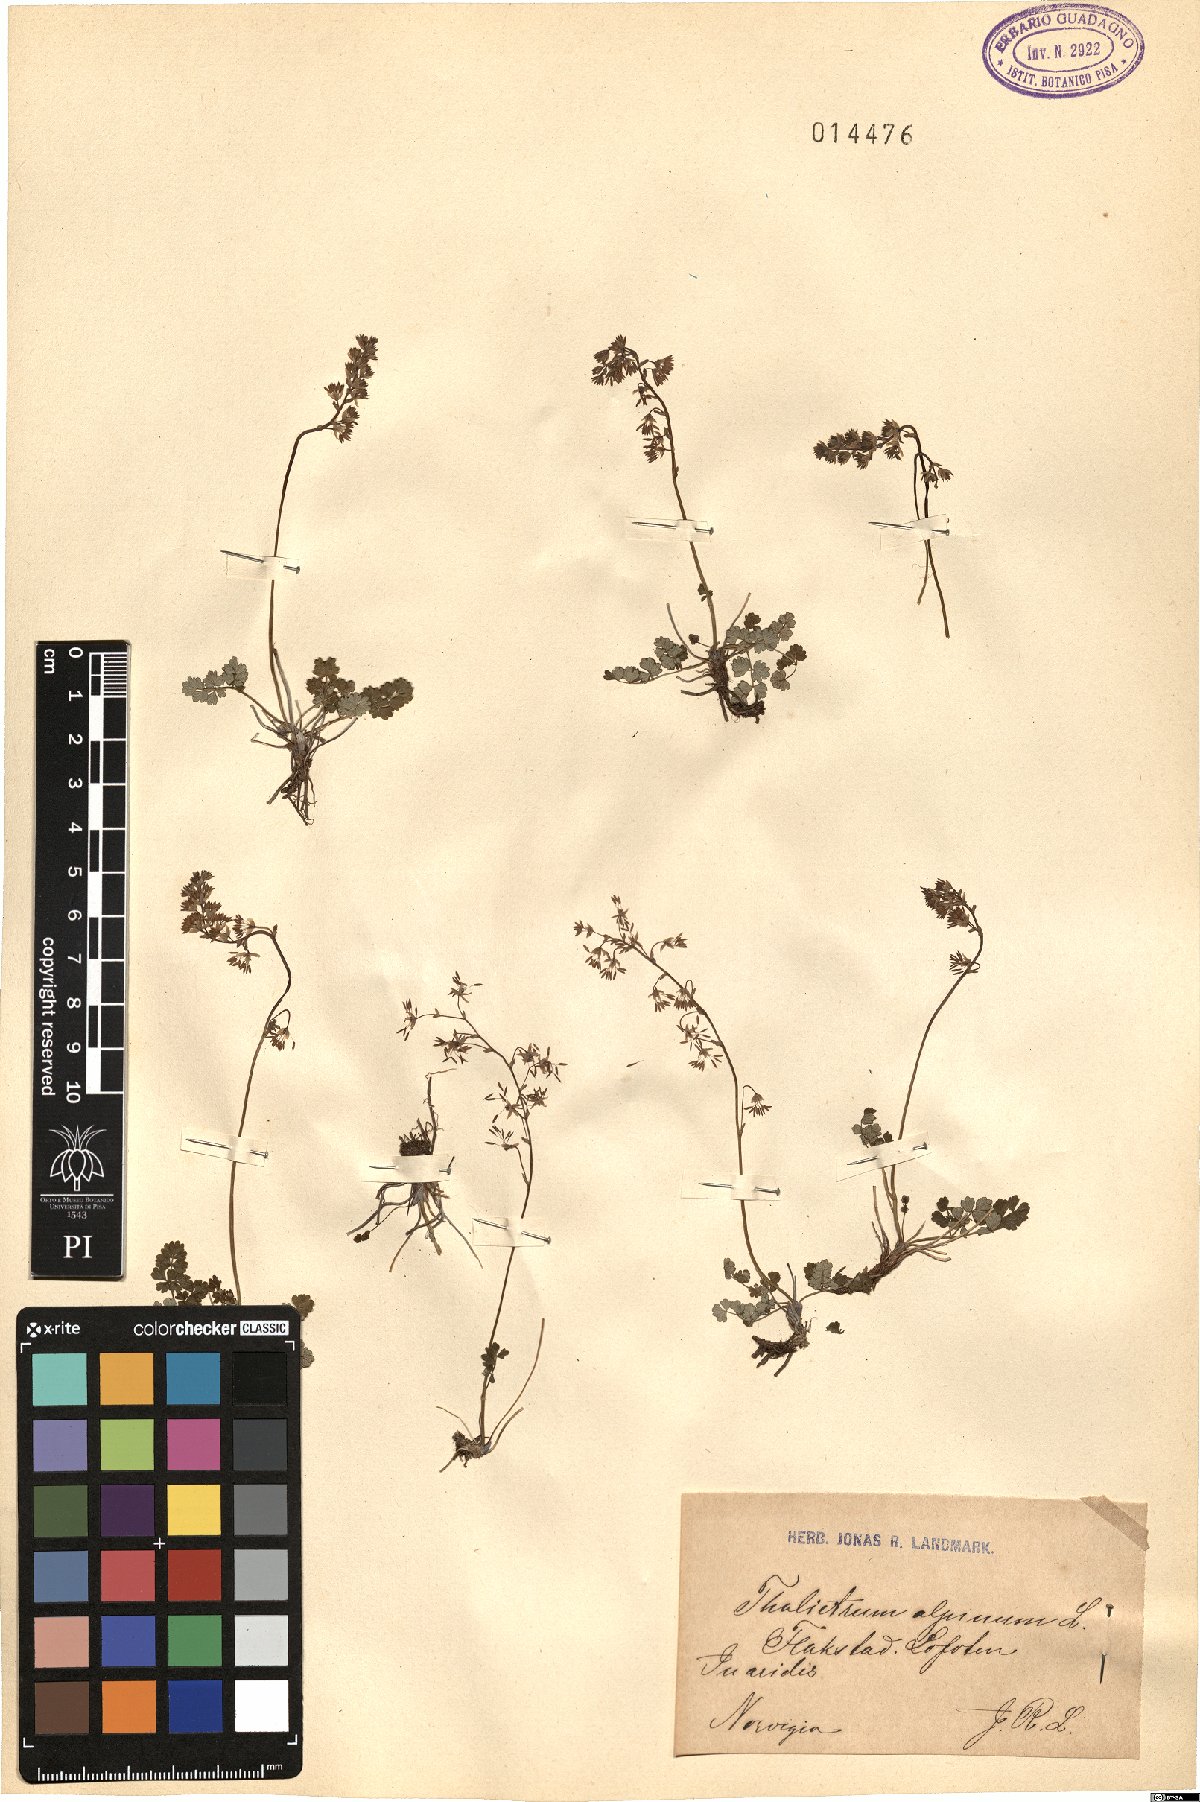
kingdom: Plantae
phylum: Tracheophyta
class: Magnoliopsida
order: Ranunculales
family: Ranunculaceae
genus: Thalictrum
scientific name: Thalictrum alpinum
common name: Alpine meadow-rue
